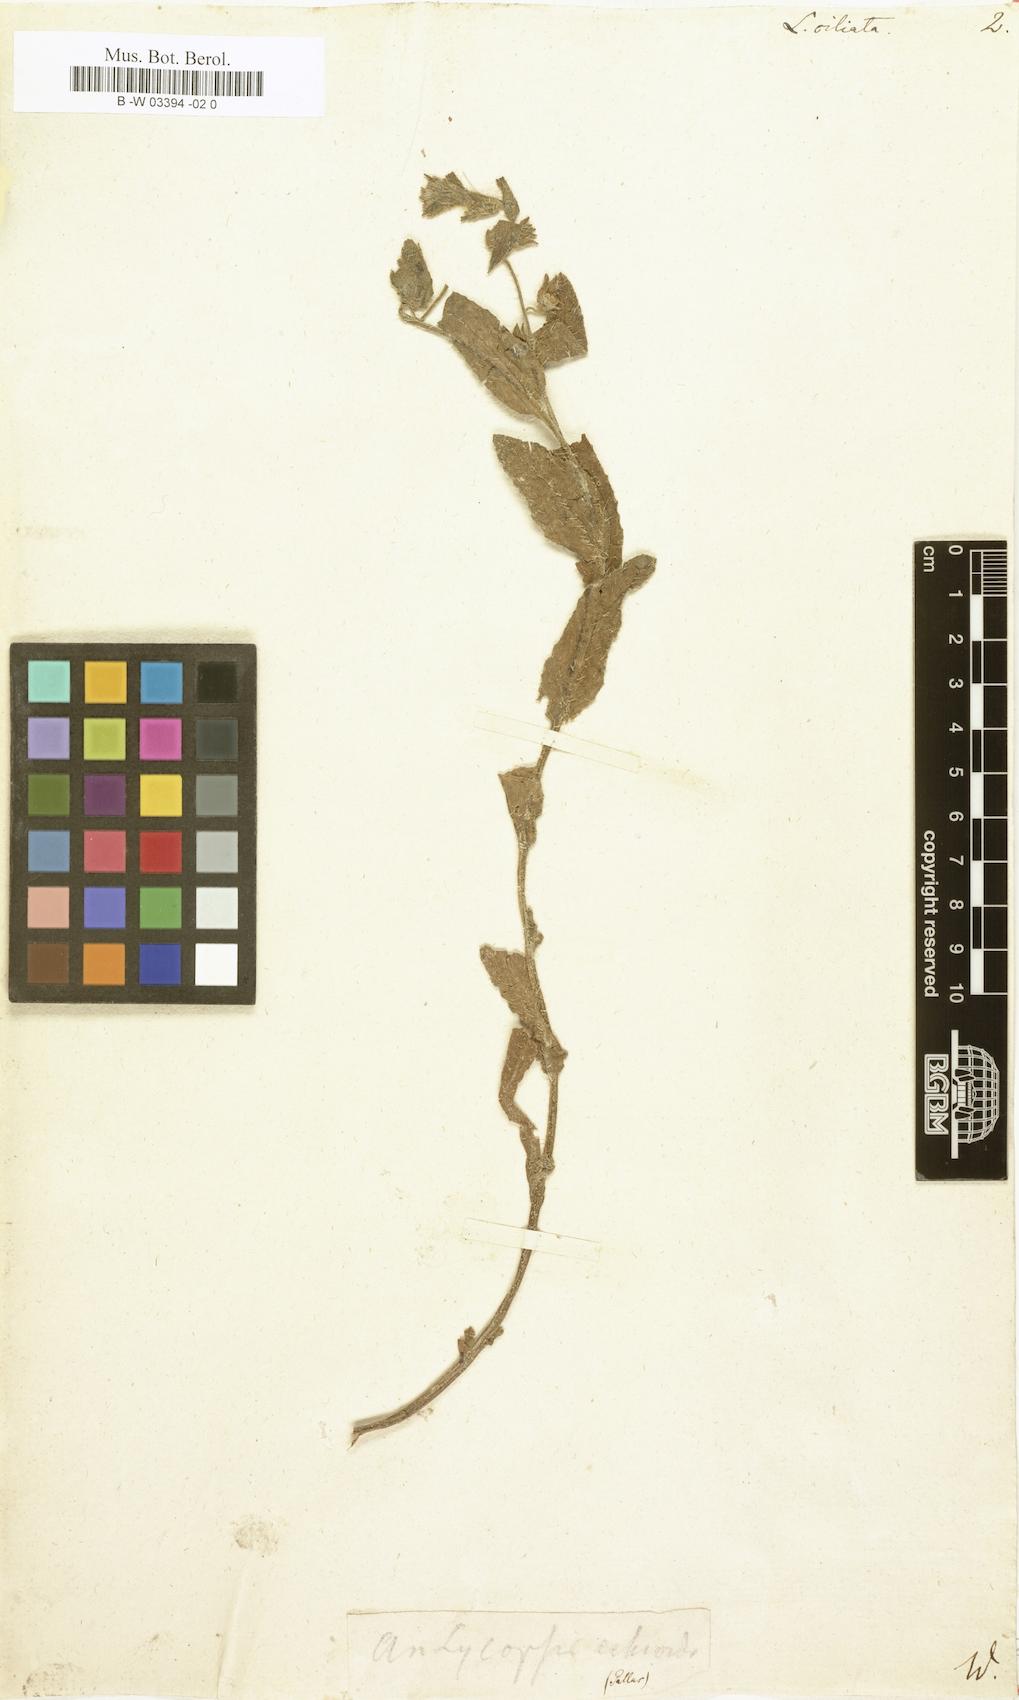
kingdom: Plantae
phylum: Tracheophyta
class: Magnoliopsida
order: Boraginales
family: Boraginaceae
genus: Nonea
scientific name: Nonea
